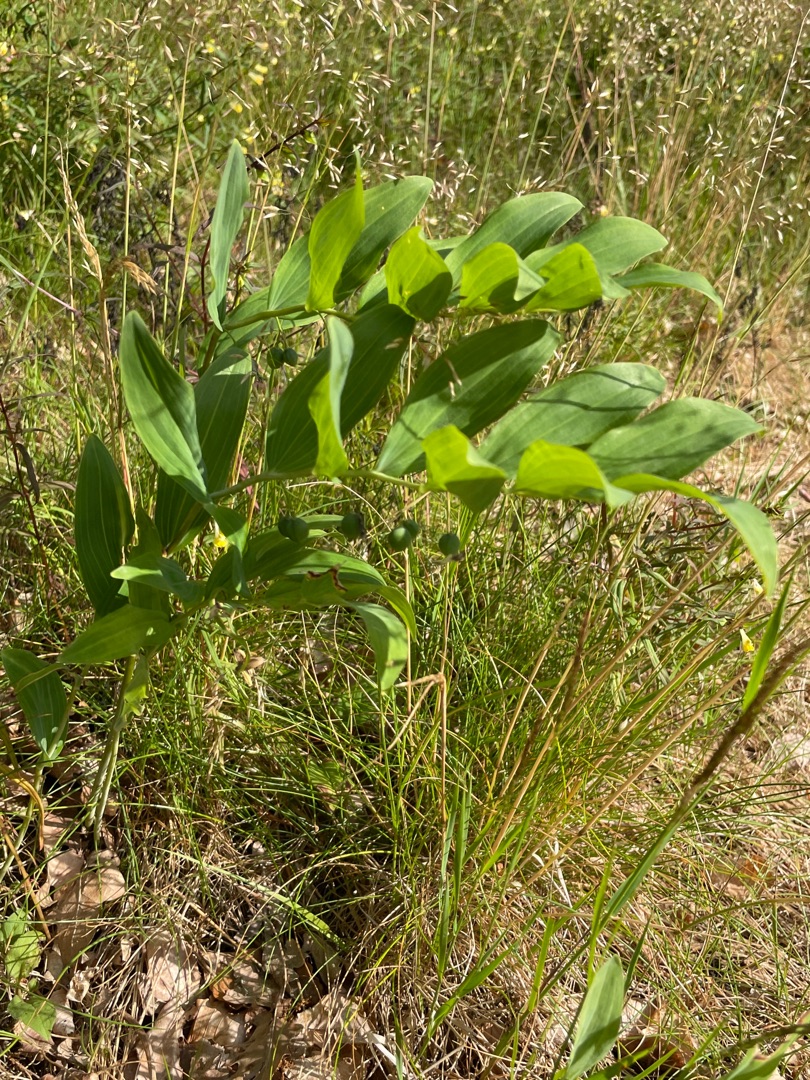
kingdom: Plantae
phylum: Tracheophyta
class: Liliopsida
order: Asparagales
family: Asparagaceae
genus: Polygonatum
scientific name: Polygonatum multiflorum
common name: Stor konval
